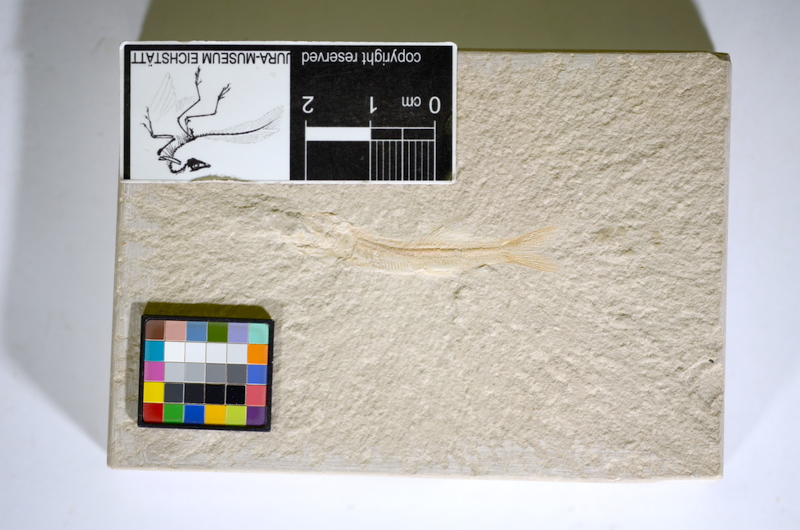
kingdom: Animalia
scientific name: Animalia
